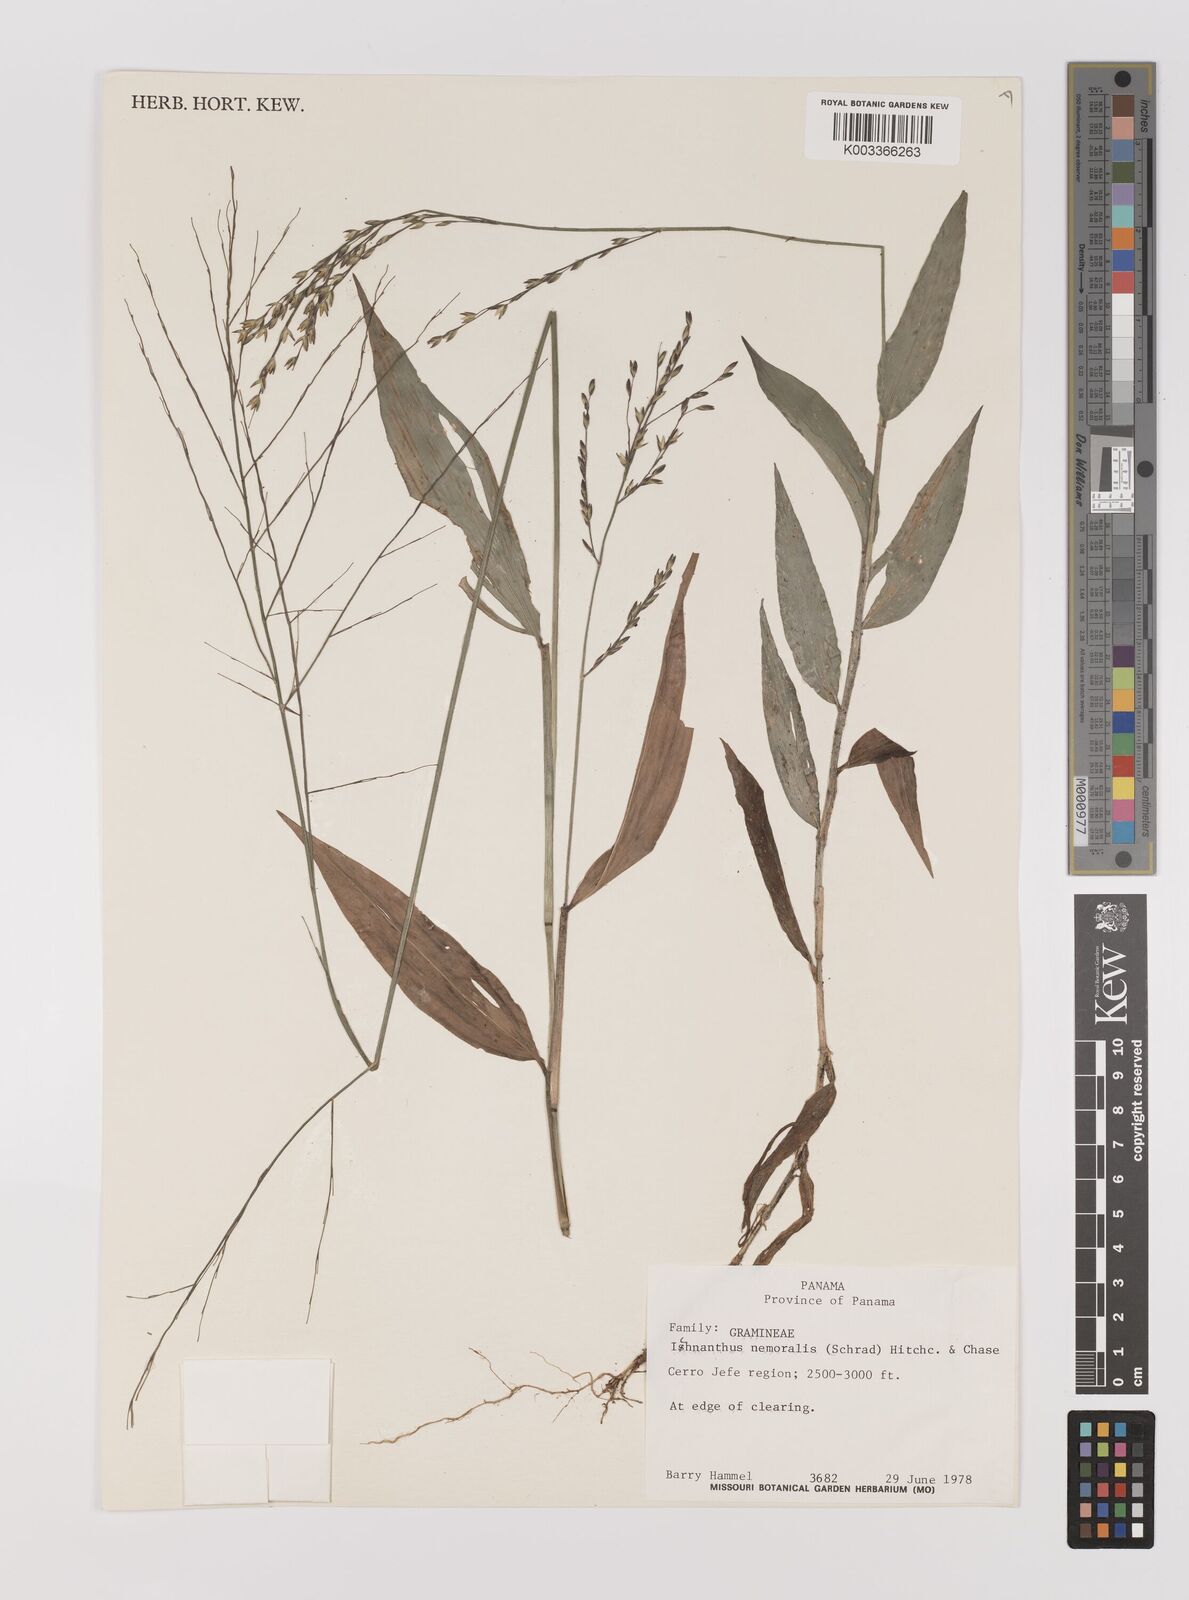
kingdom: Plantae
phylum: Tracheophyta
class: Liliopsida
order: Poales
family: Poaceae
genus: Ichnanthus
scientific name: Ichnanthus nemoralis
